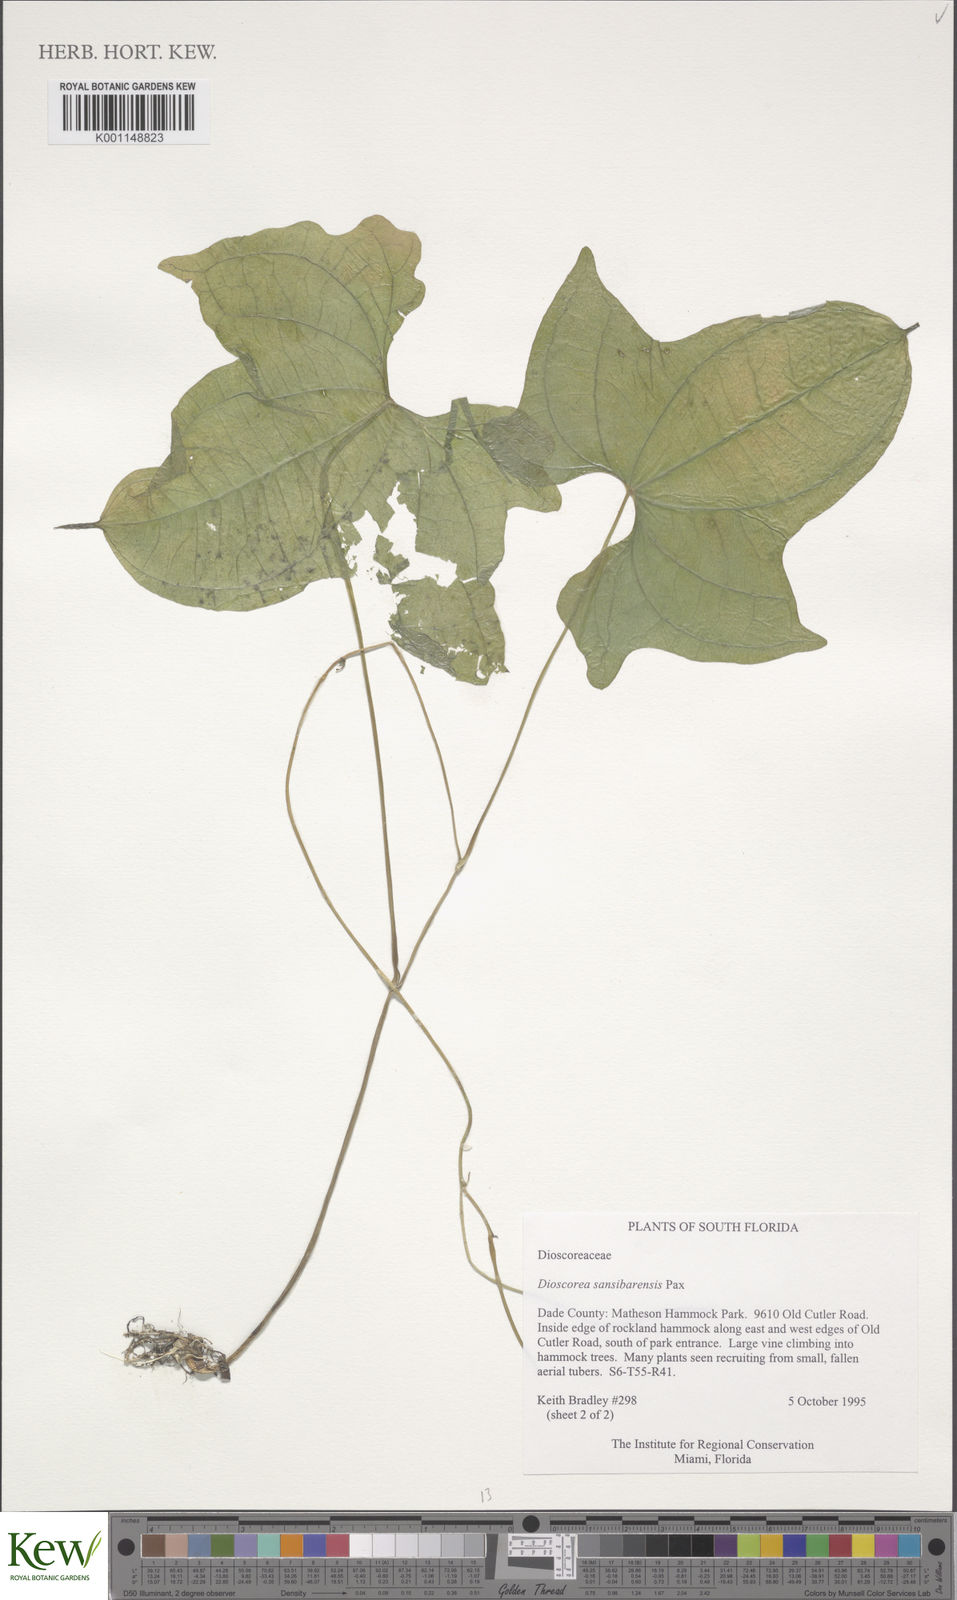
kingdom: Plantae
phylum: Tracheophyta
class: Liliopsida
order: Dioscoreales
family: Dioscoreaceae
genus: Dioscorea
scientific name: Dioscorea sansibarensis
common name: Zanzibar yam
